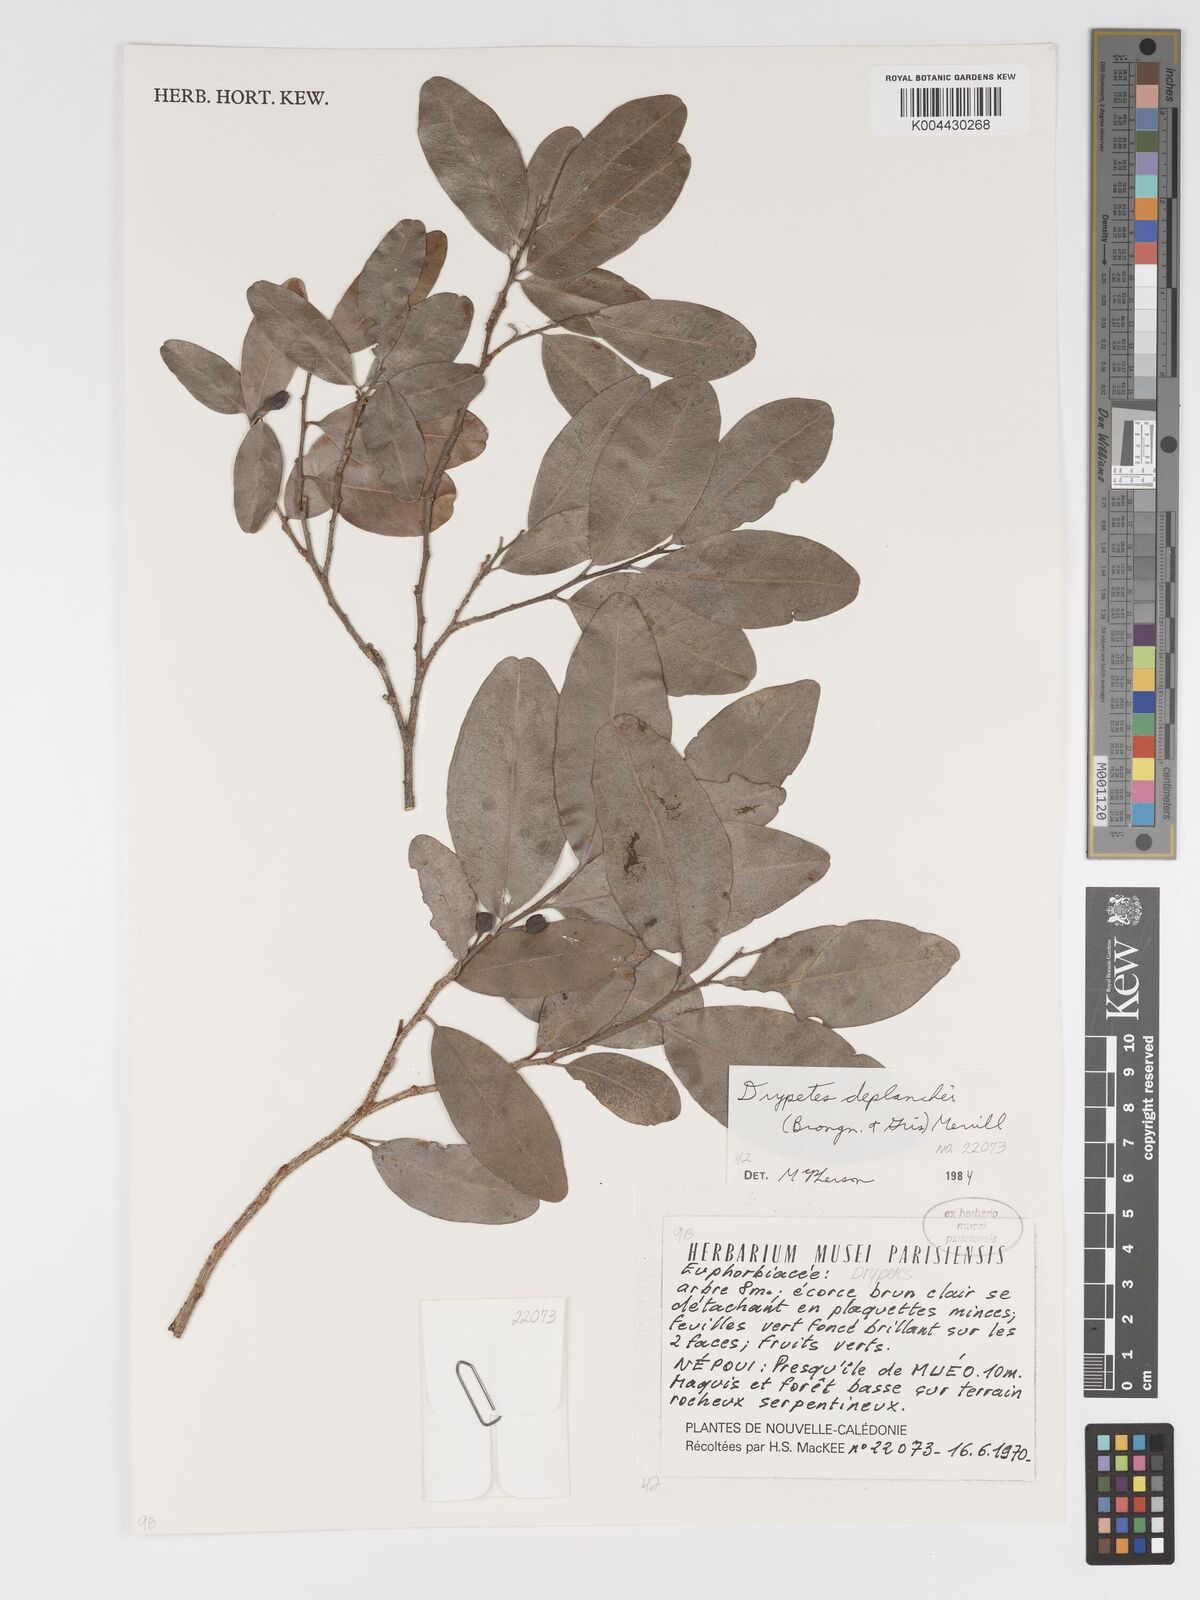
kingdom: Plantae
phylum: Tracheophyta
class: Magnoliopsida
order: Malpighiales
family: Putranjivaceae
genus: Drypetes
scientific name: Drypetes deplanchei
